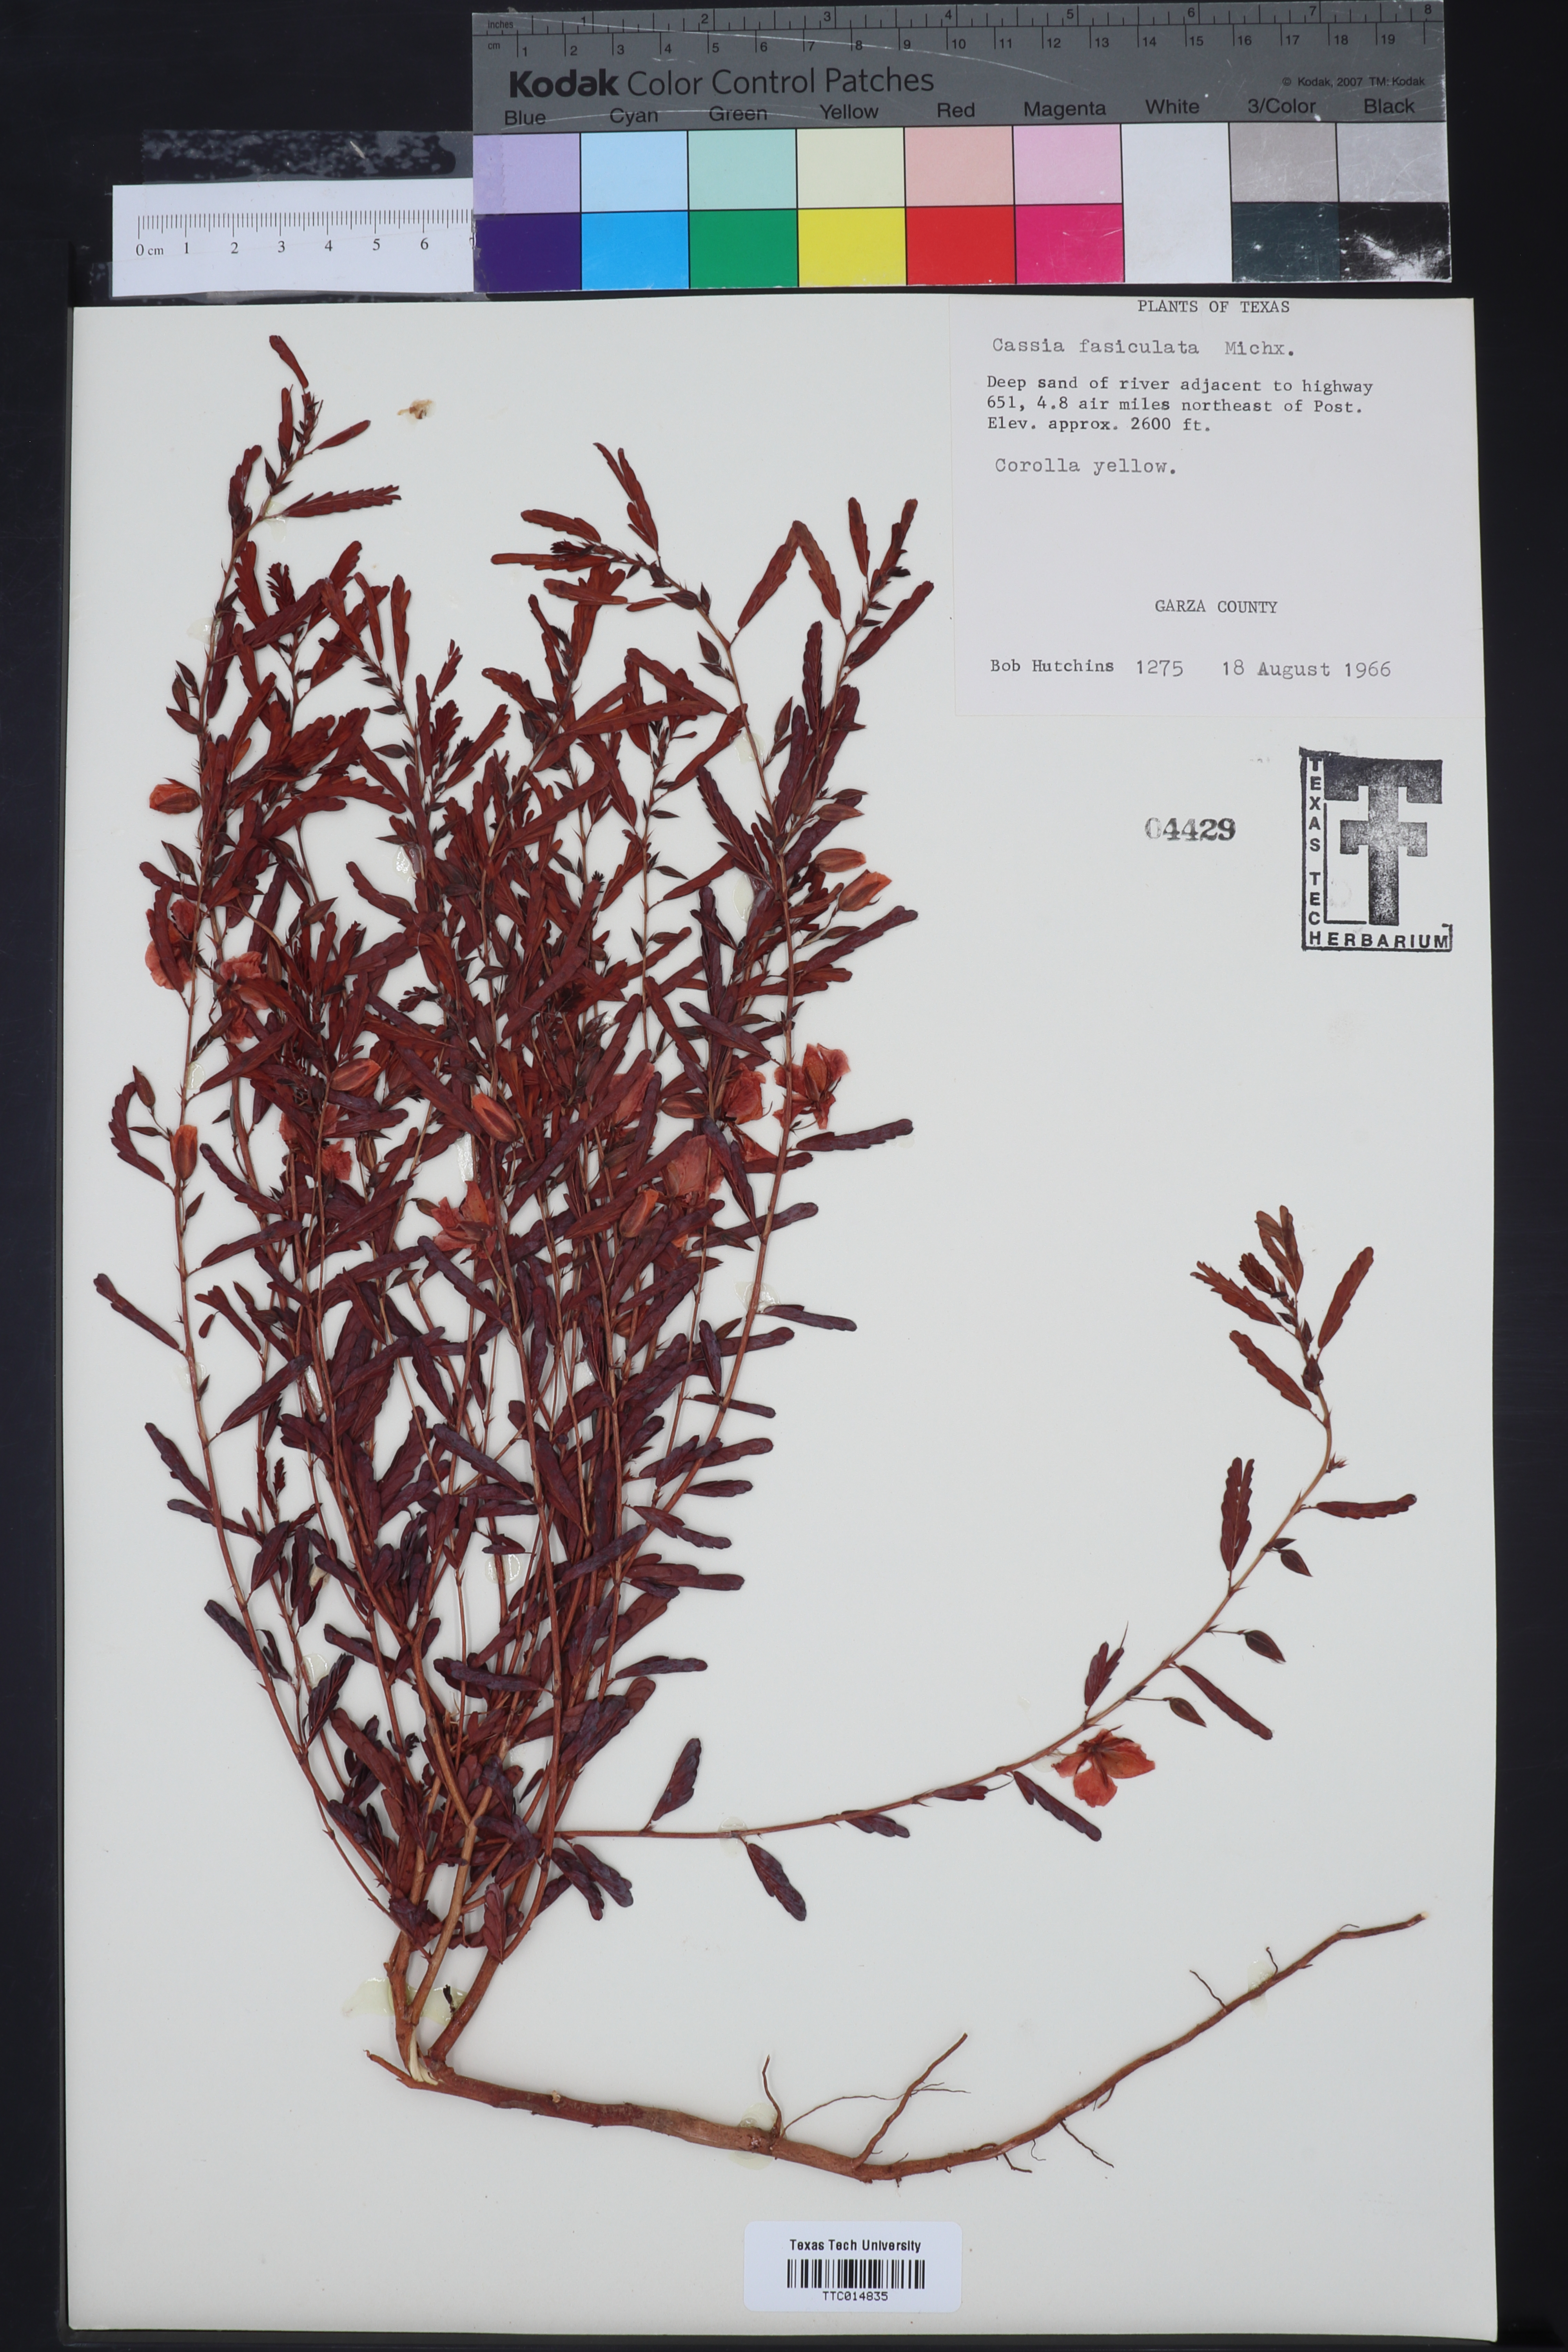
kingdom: Plantae
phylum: Tracheophyta
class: Magnoliopsida
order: Fabales
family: Fabaceae
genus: Chamaecrista
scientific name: Chamaecrista fasciculata
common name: Golden cassia
